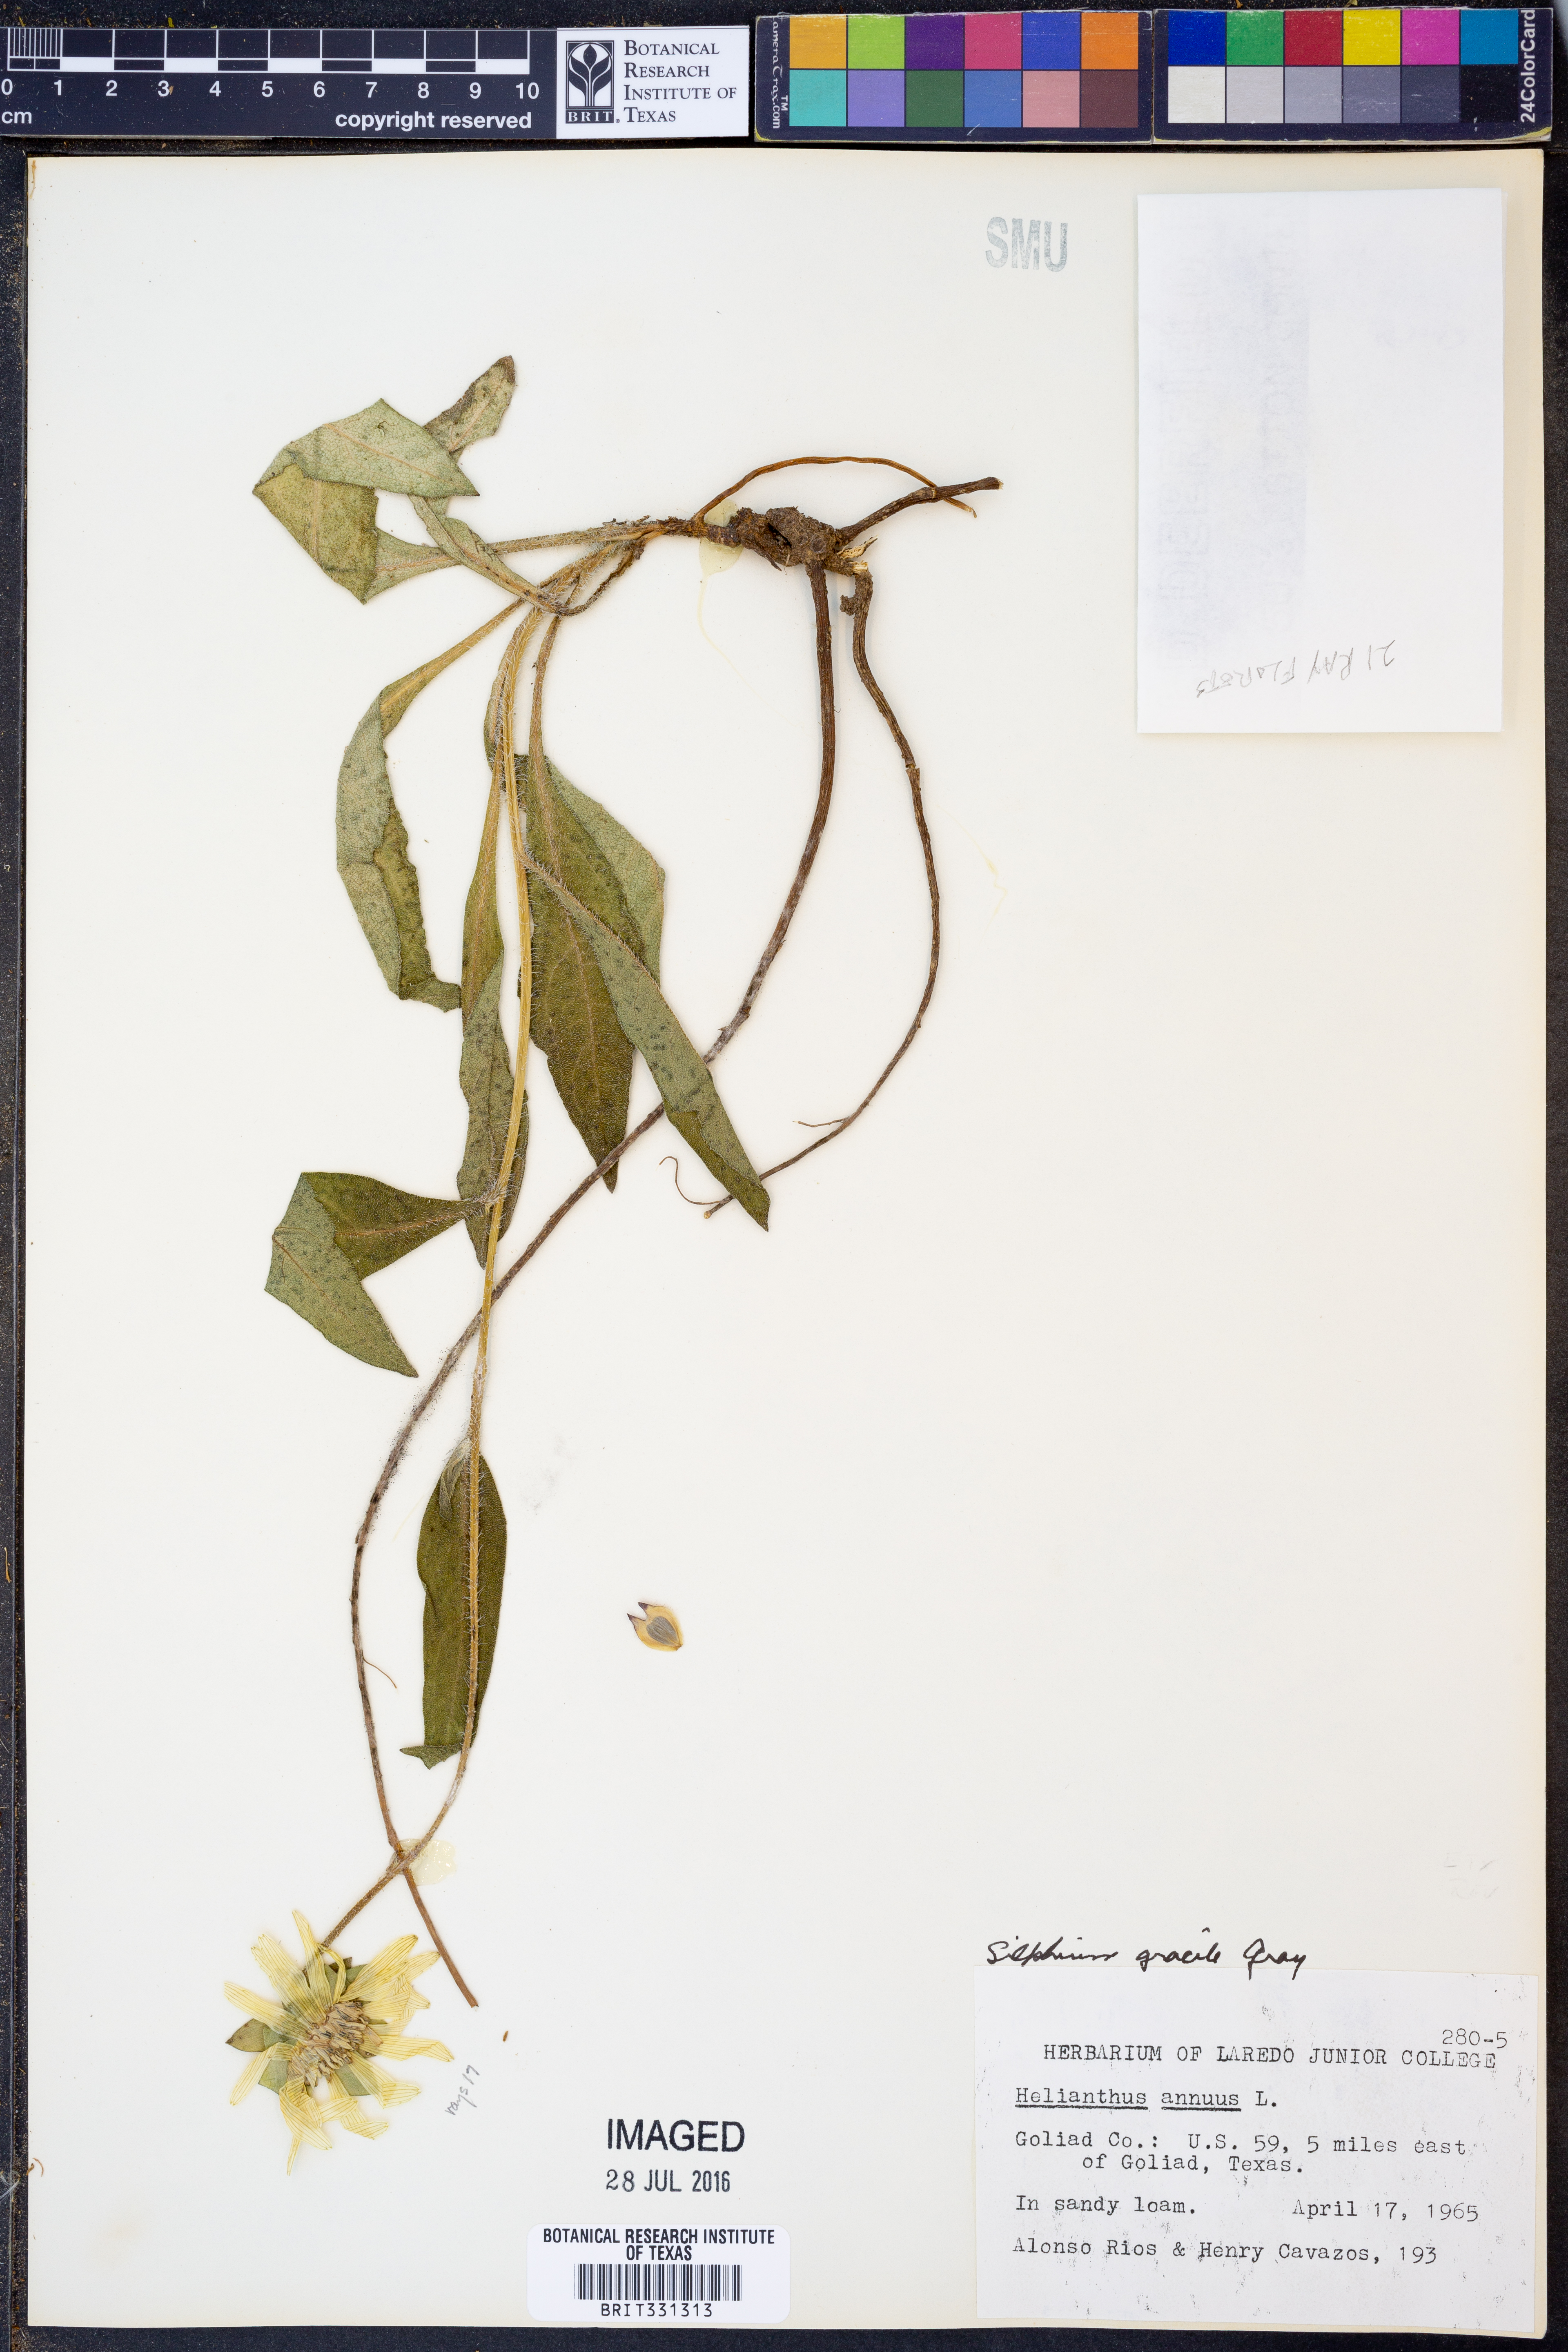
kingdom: Plantae
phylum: Tracheophyta
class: Magnoliopsida
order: Asterales
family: Asteraceae
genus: Silphium
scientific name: Silphium radula
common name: Roughleaf rosinweed
